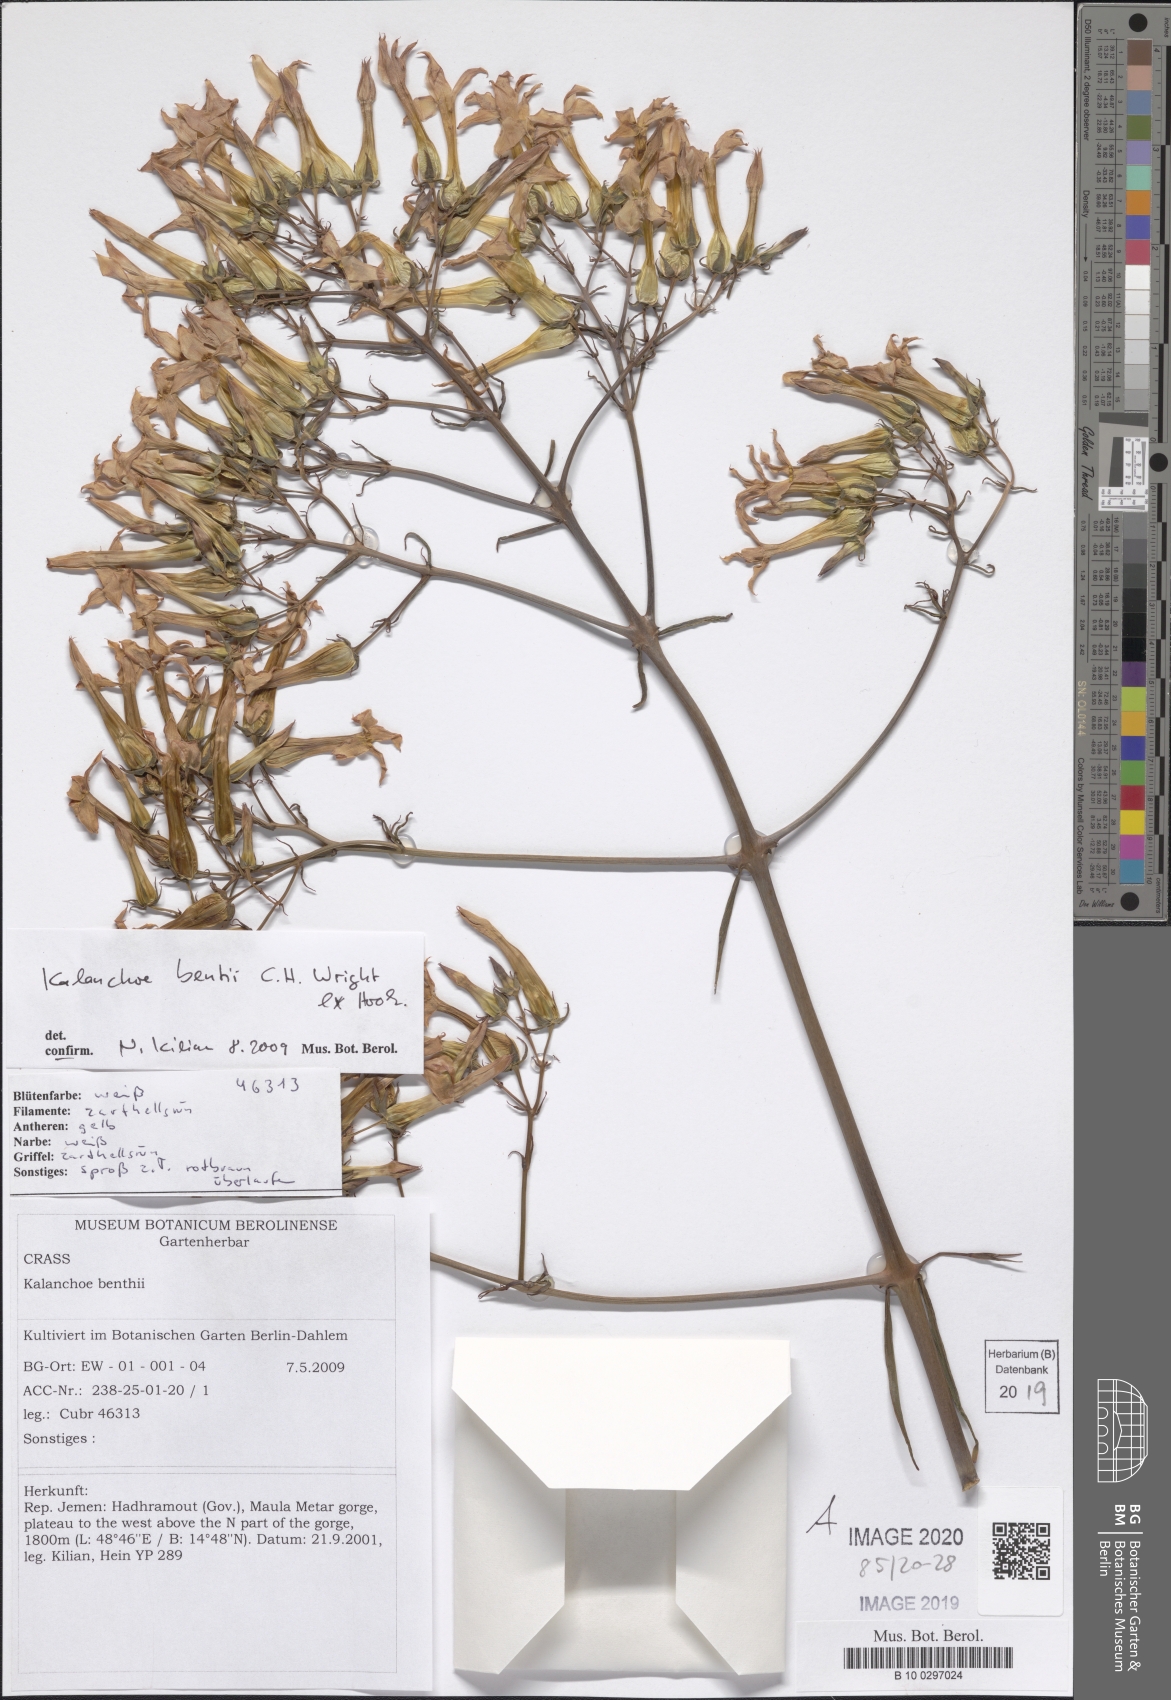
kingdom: Plantae
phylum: Tracheophyta
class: Magnoliopsida
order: Saxifragales
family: Crassulaceae
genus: Kalanchoe
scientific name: Kalanchoe bentii
